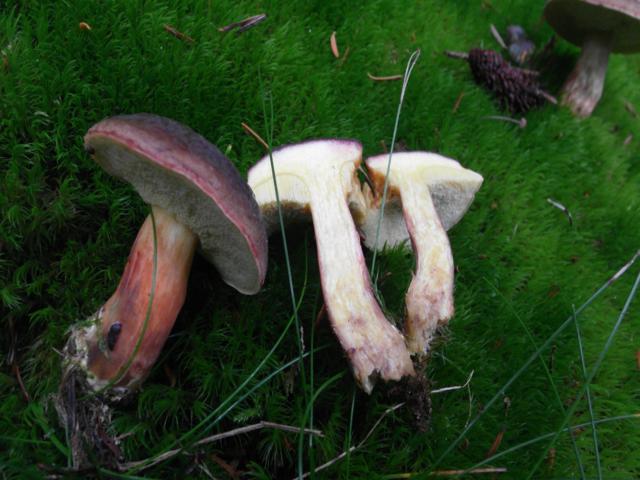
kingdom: Fungi
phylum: Basidiomycota
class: Agaricomycetes
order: Boletales
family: Boletaceae
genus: Xerocomellus
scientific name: Xerocomellus pruinatus
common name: dugget rørhat
